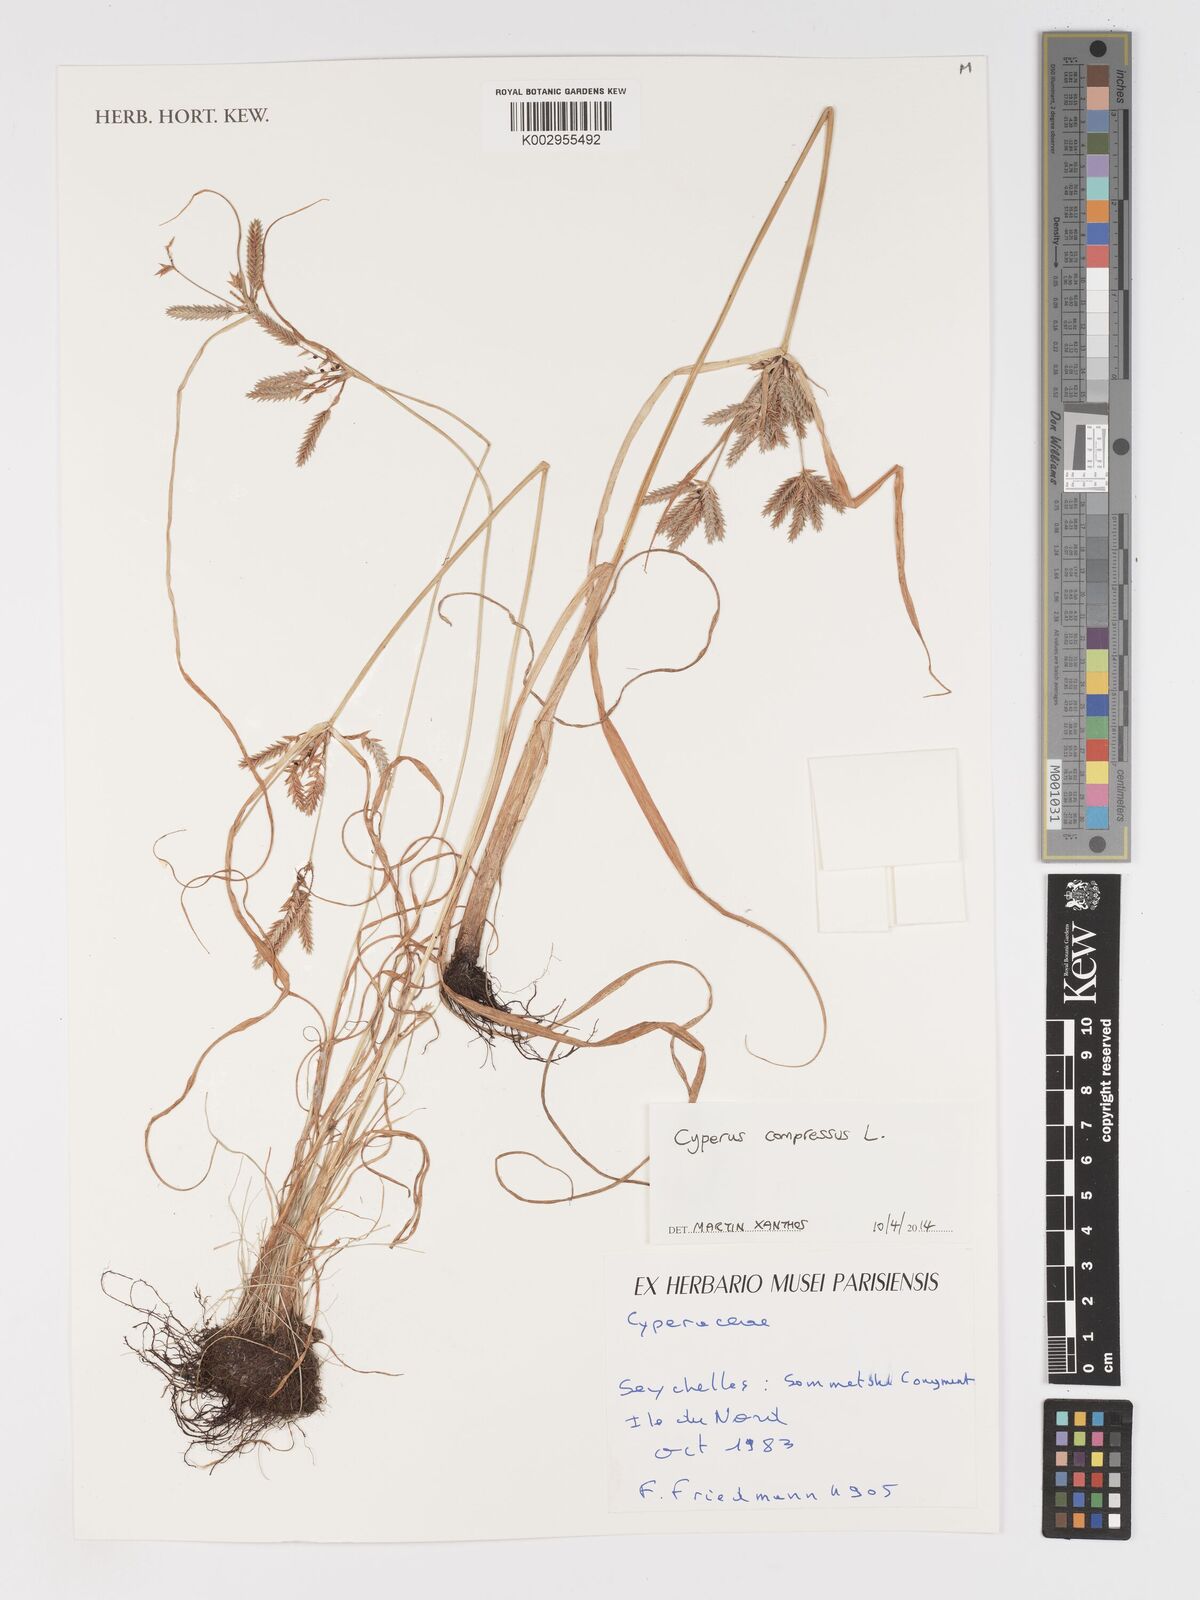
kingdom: Plantae
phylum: Tracheophyta
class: Liliopsida
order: Poales
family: Cyperaceae
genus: Cyperus
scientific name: Cyperus compressus
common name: Poorland flatsedge
